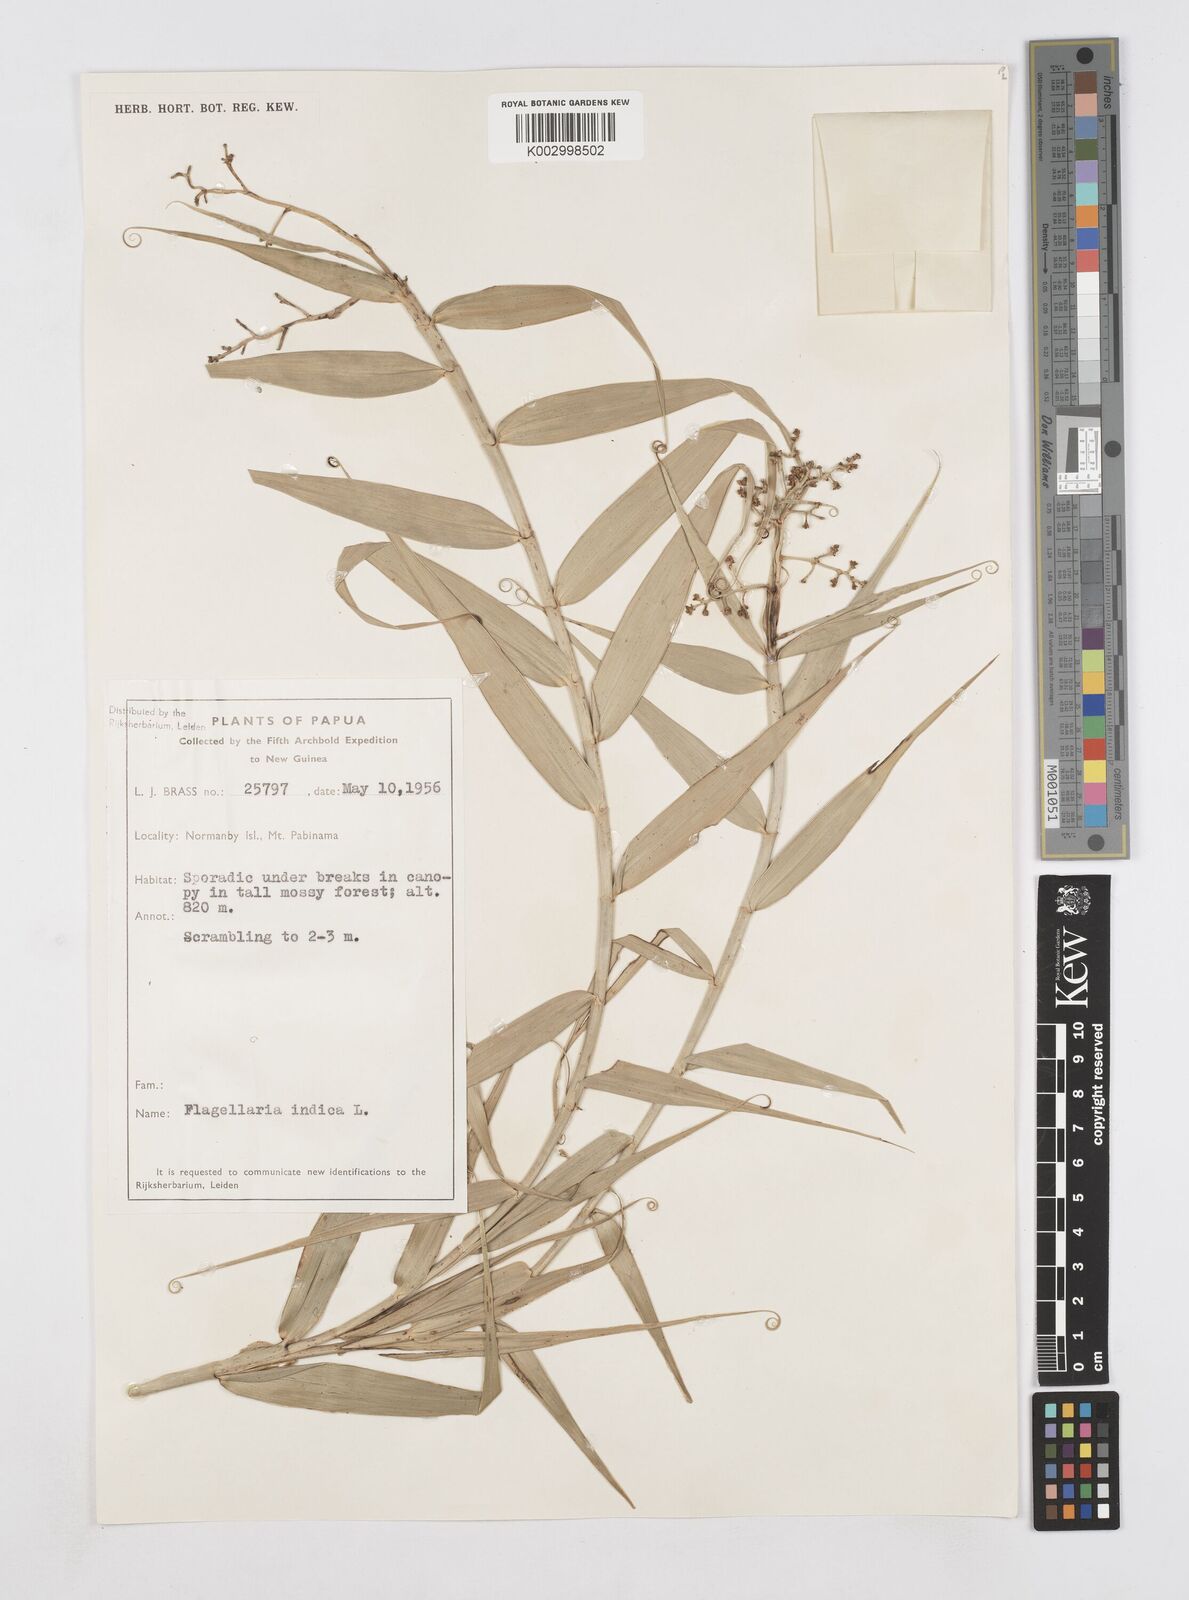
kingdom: Plantae
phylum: Tracheophyta
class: Liliopsida
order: Poales
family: Flagellariaceae
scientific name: Flagellariaceae
